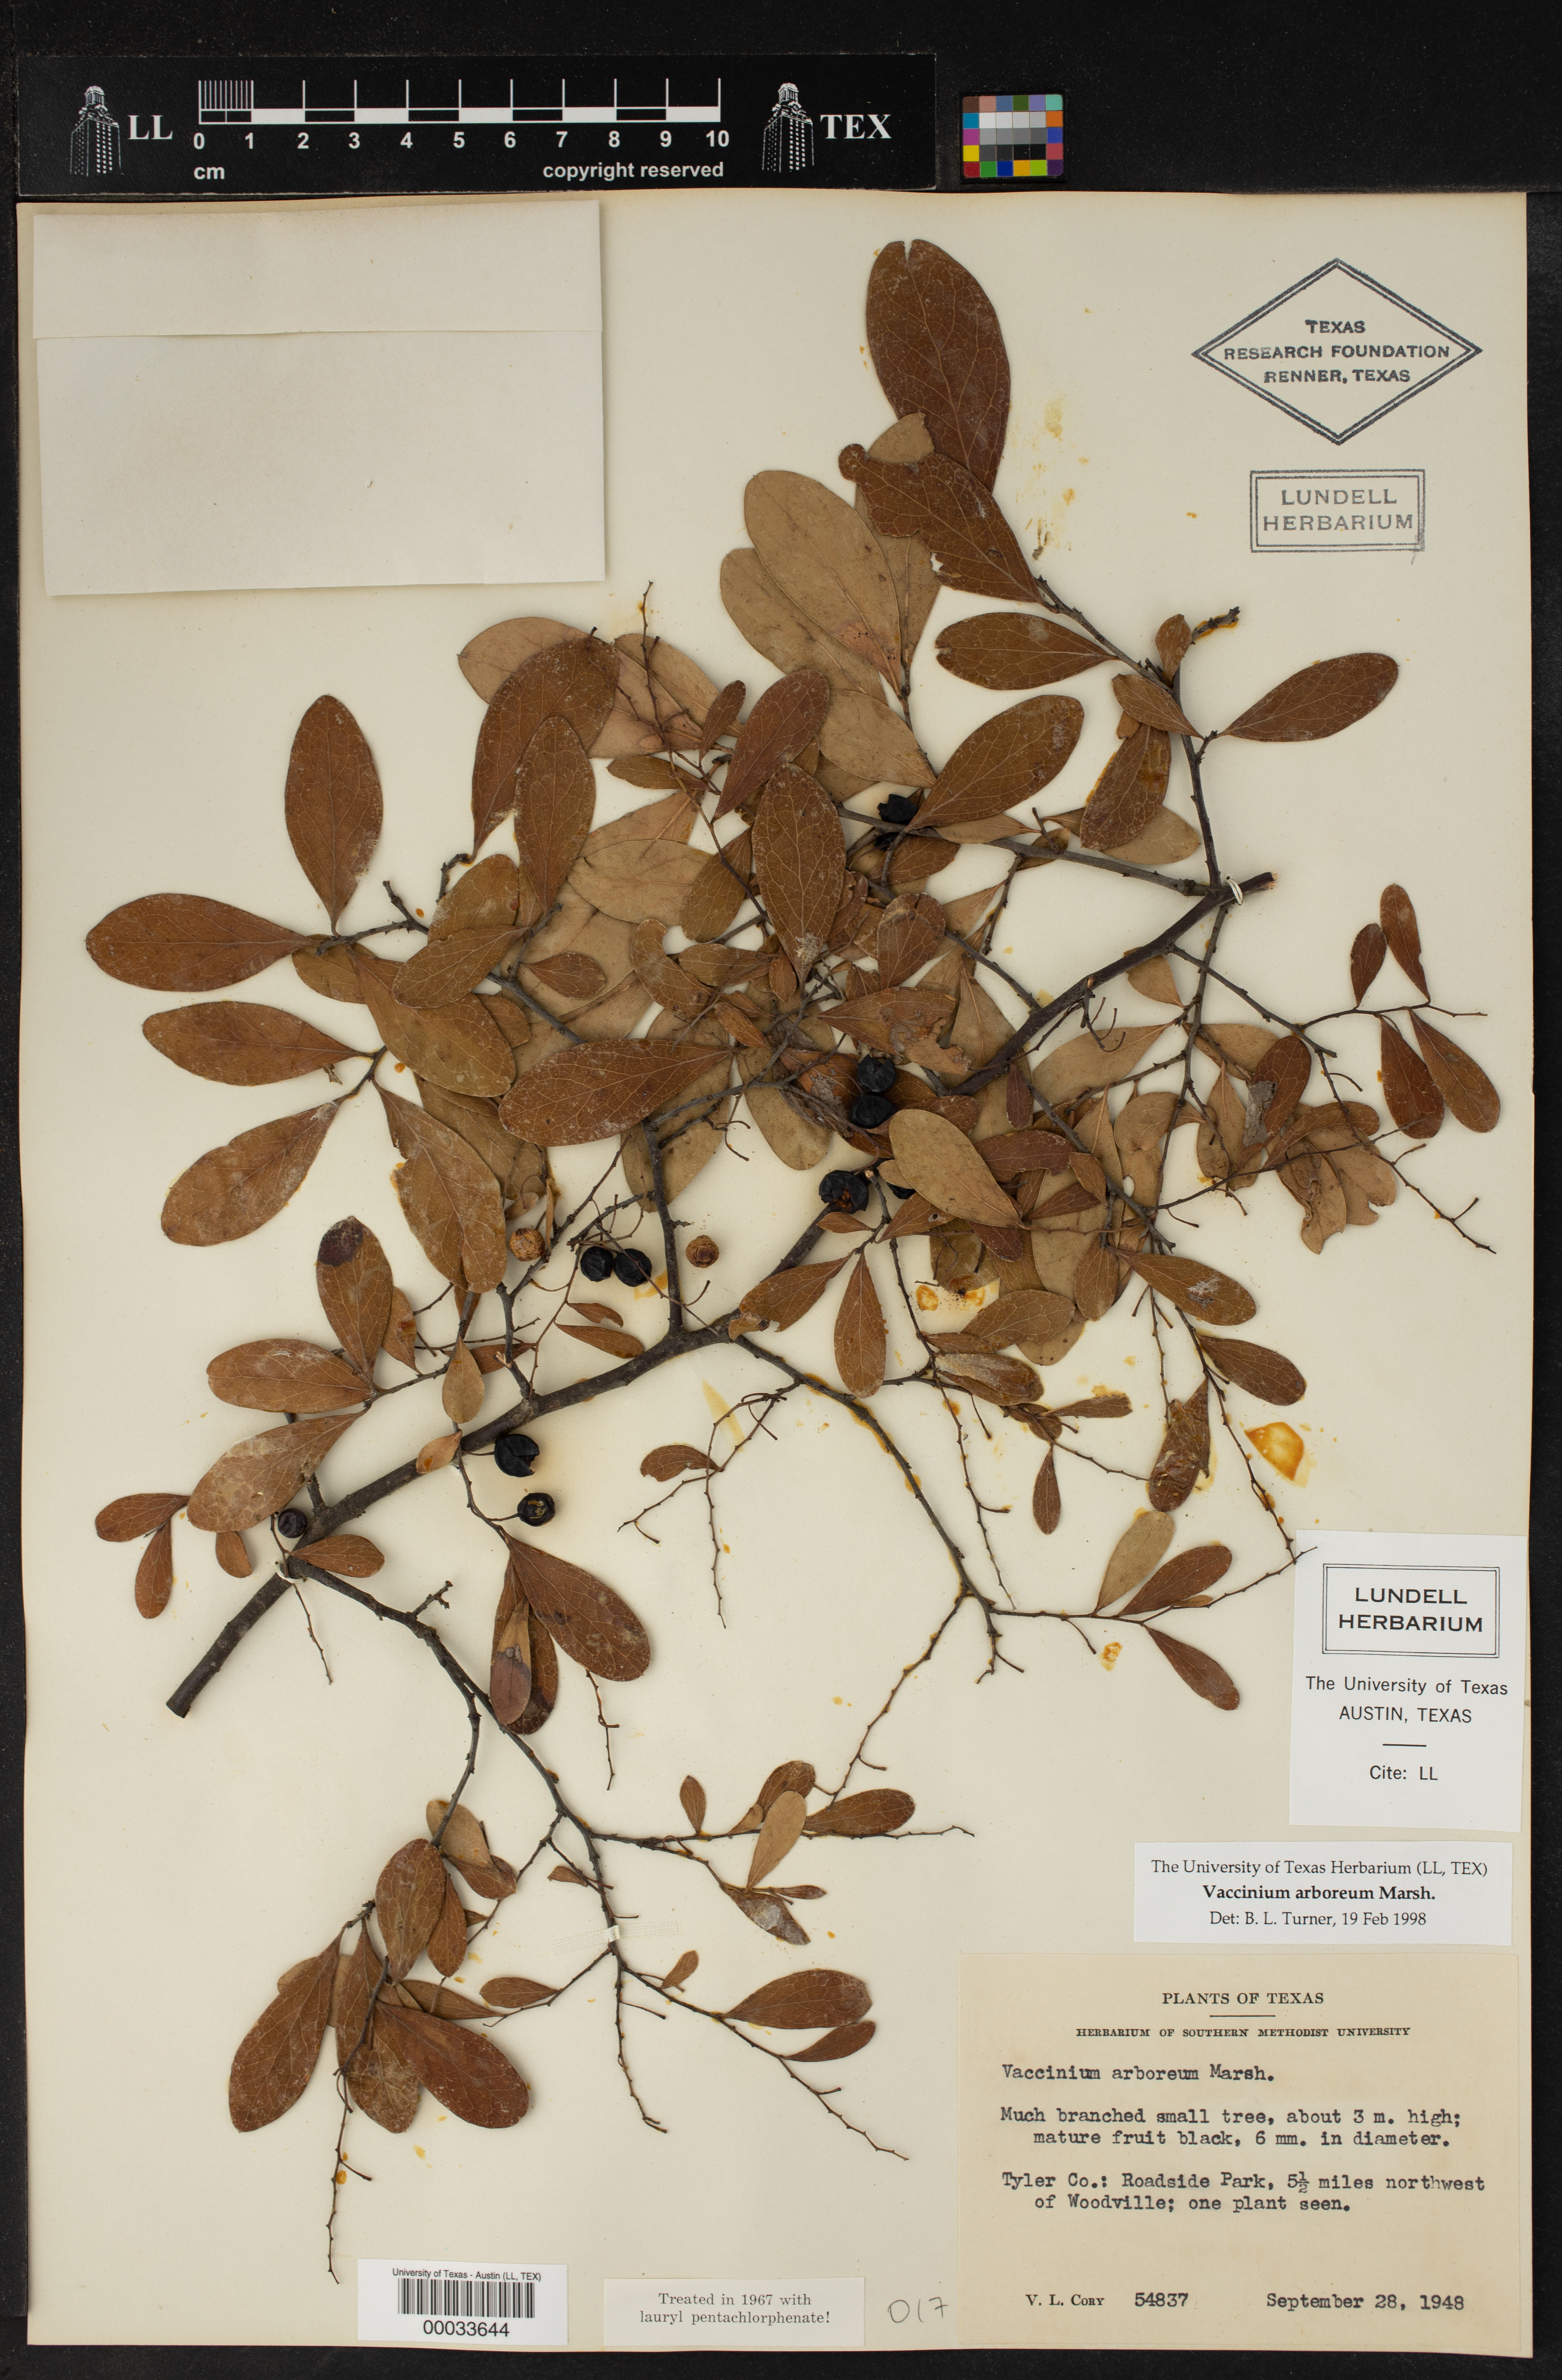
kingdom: Plantae
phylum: Tracheophyta
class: Magnoliopsida
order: Ericales
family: Ericaceae
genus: Vaccinium
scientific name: Vaccinium arboreum
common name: Farkleberry
